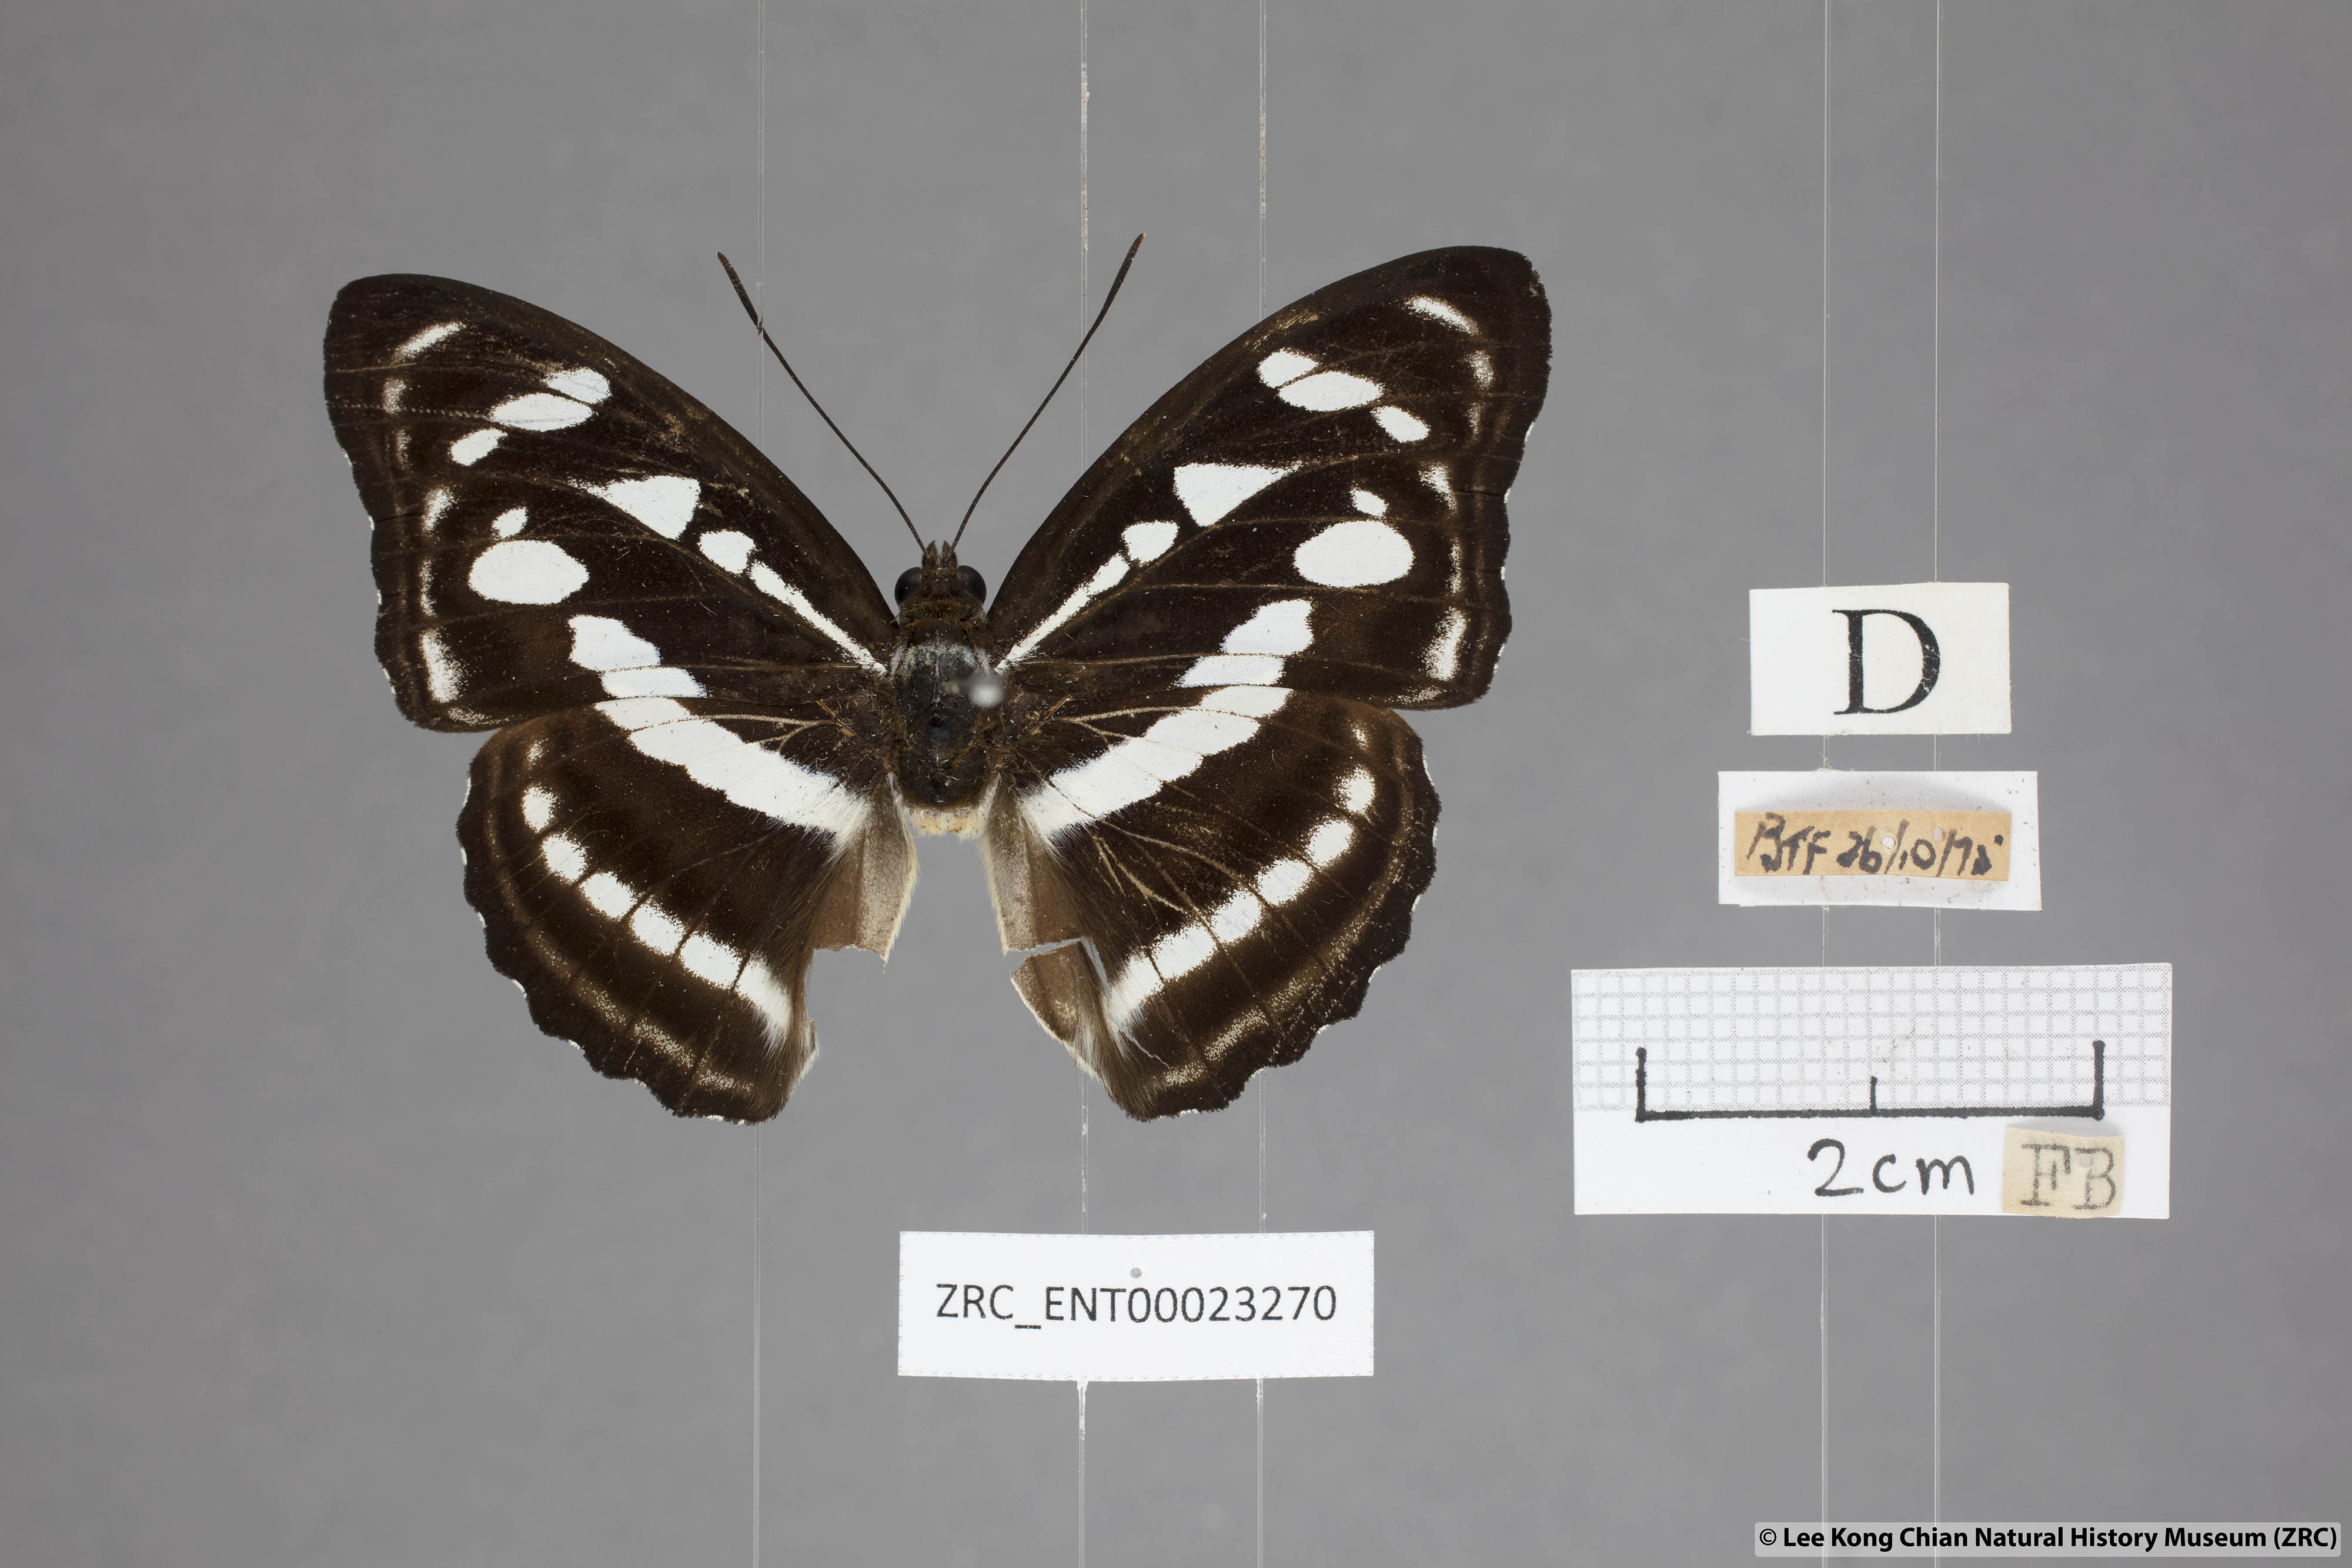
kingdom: Animalia
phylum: Arthropoda
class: Insecta
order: Lepidoptera
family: Nymphalidae
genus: Parathyma
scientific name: Parathyma reta
